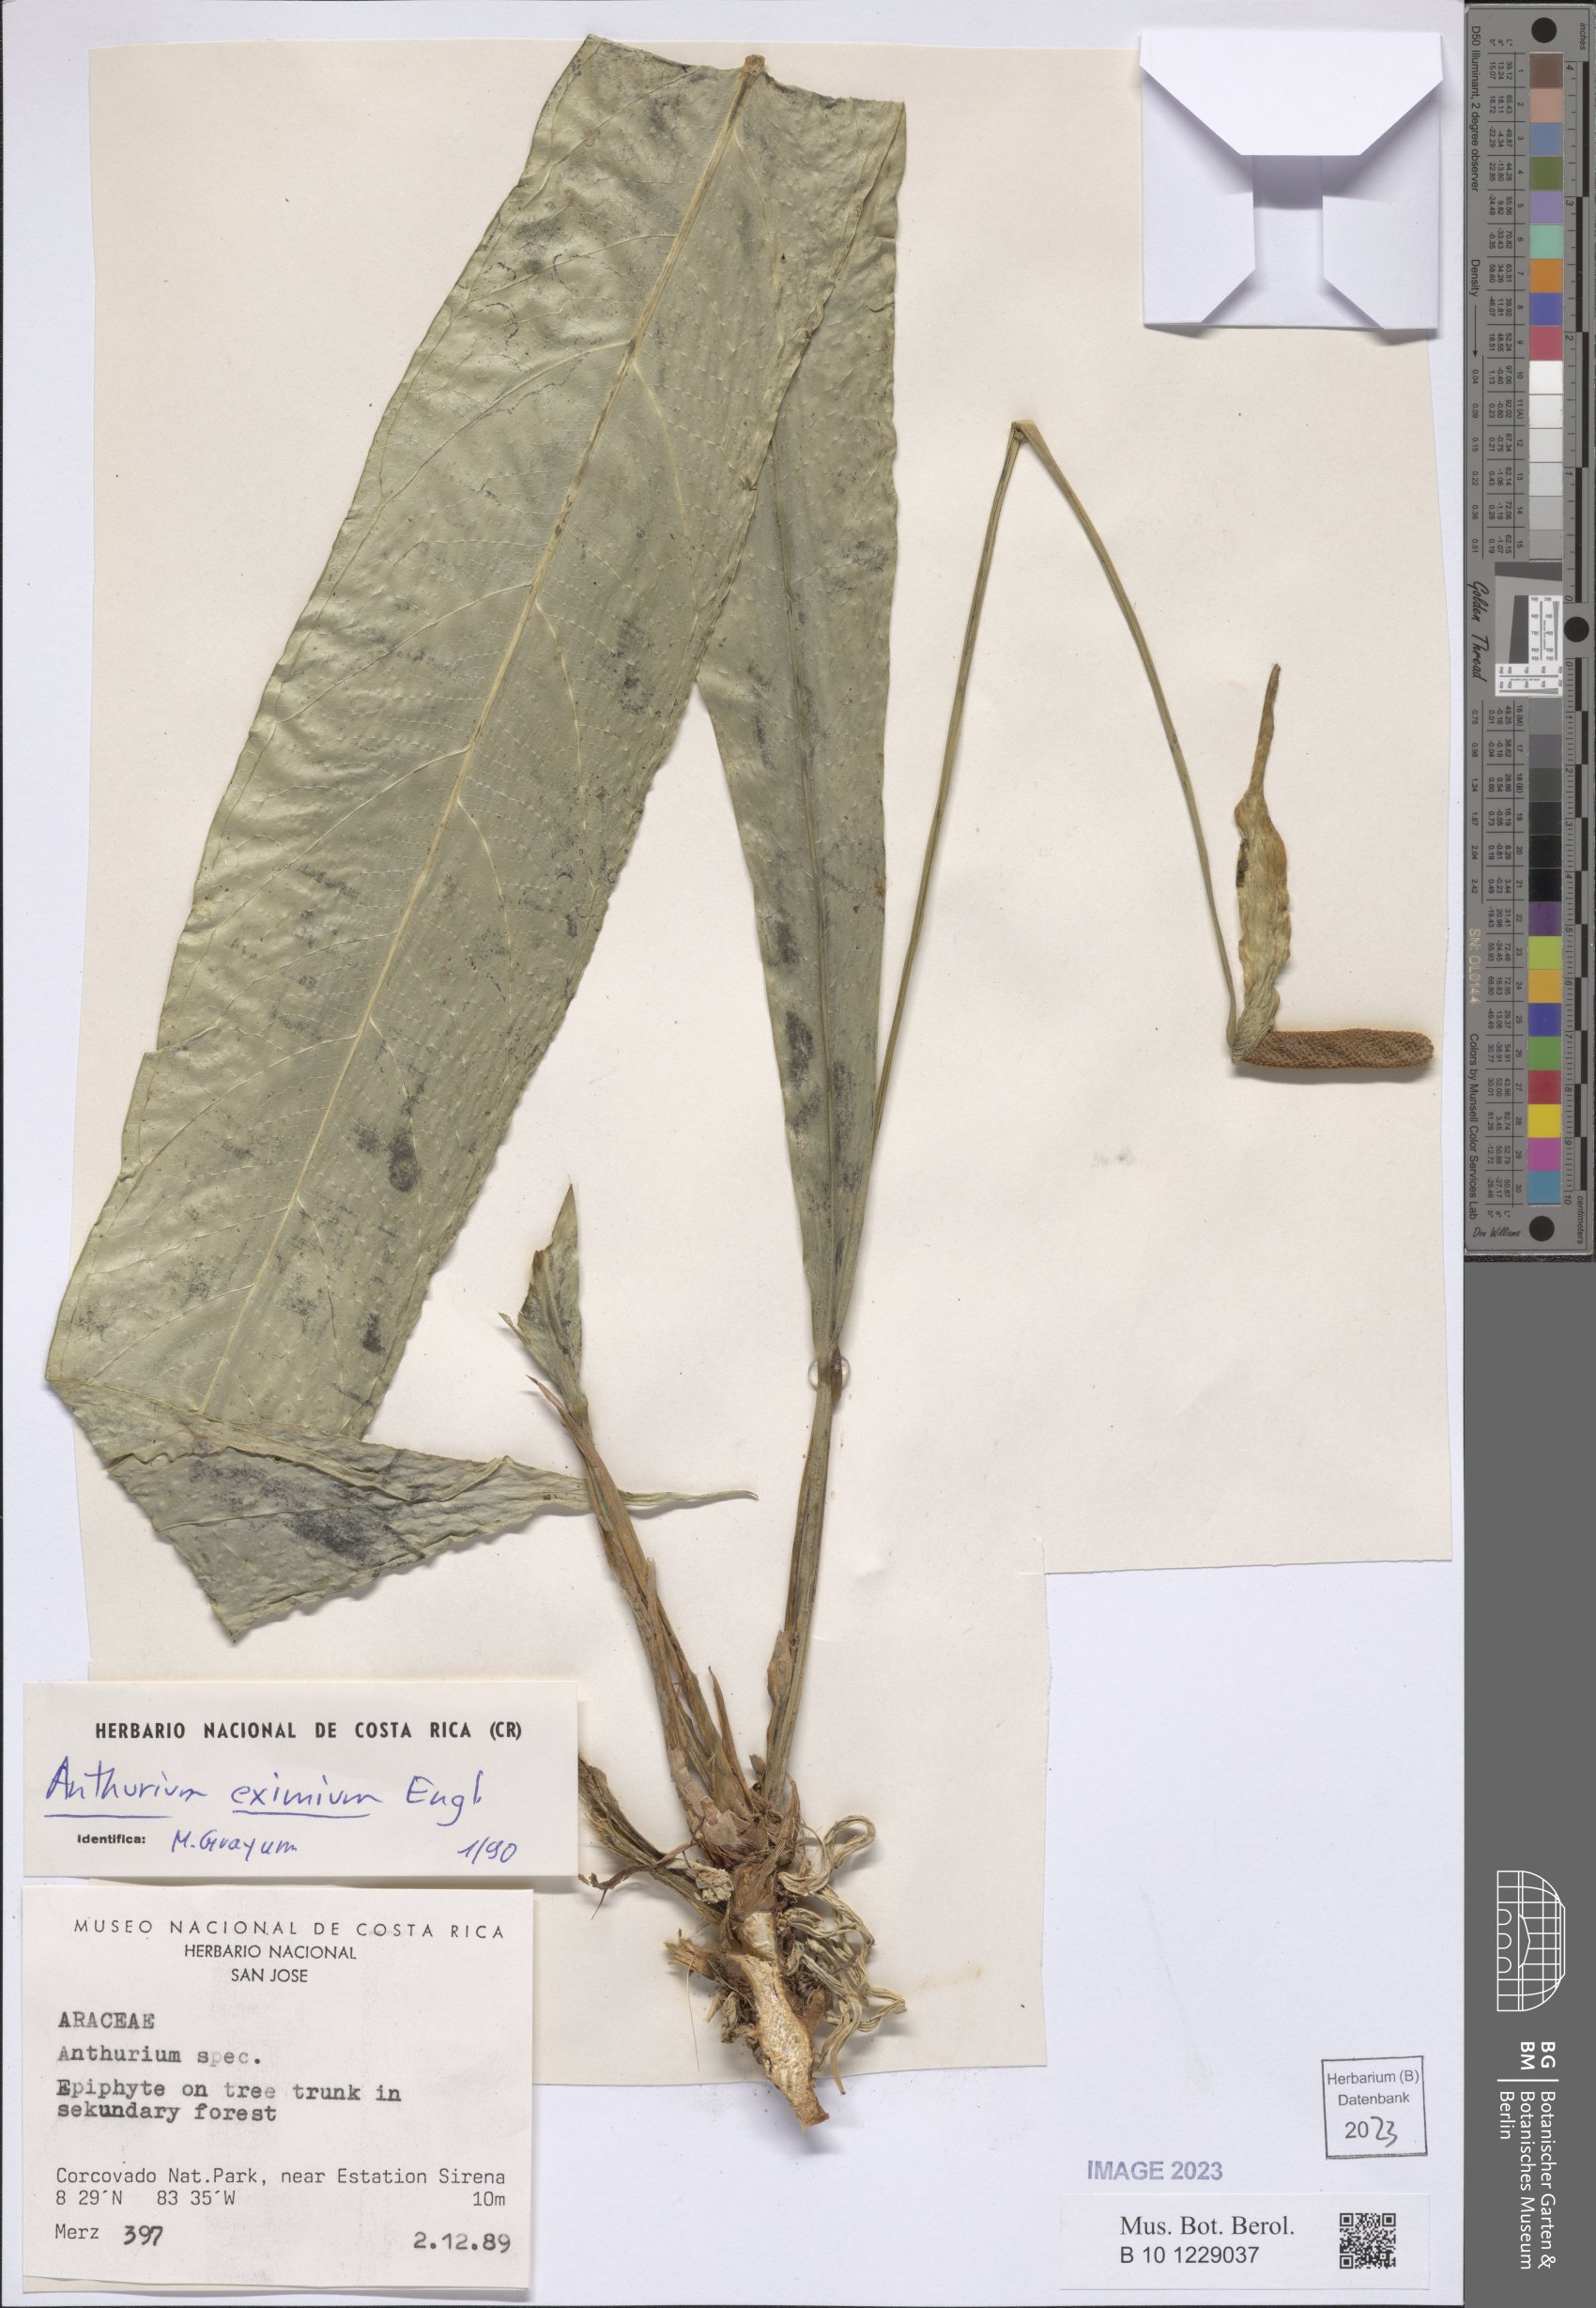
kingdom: Plantae
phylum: Tracheophyta
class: Liliopsida
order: Alismatales
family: Araceae
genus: Anthurium
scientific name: Anthurium eximium
